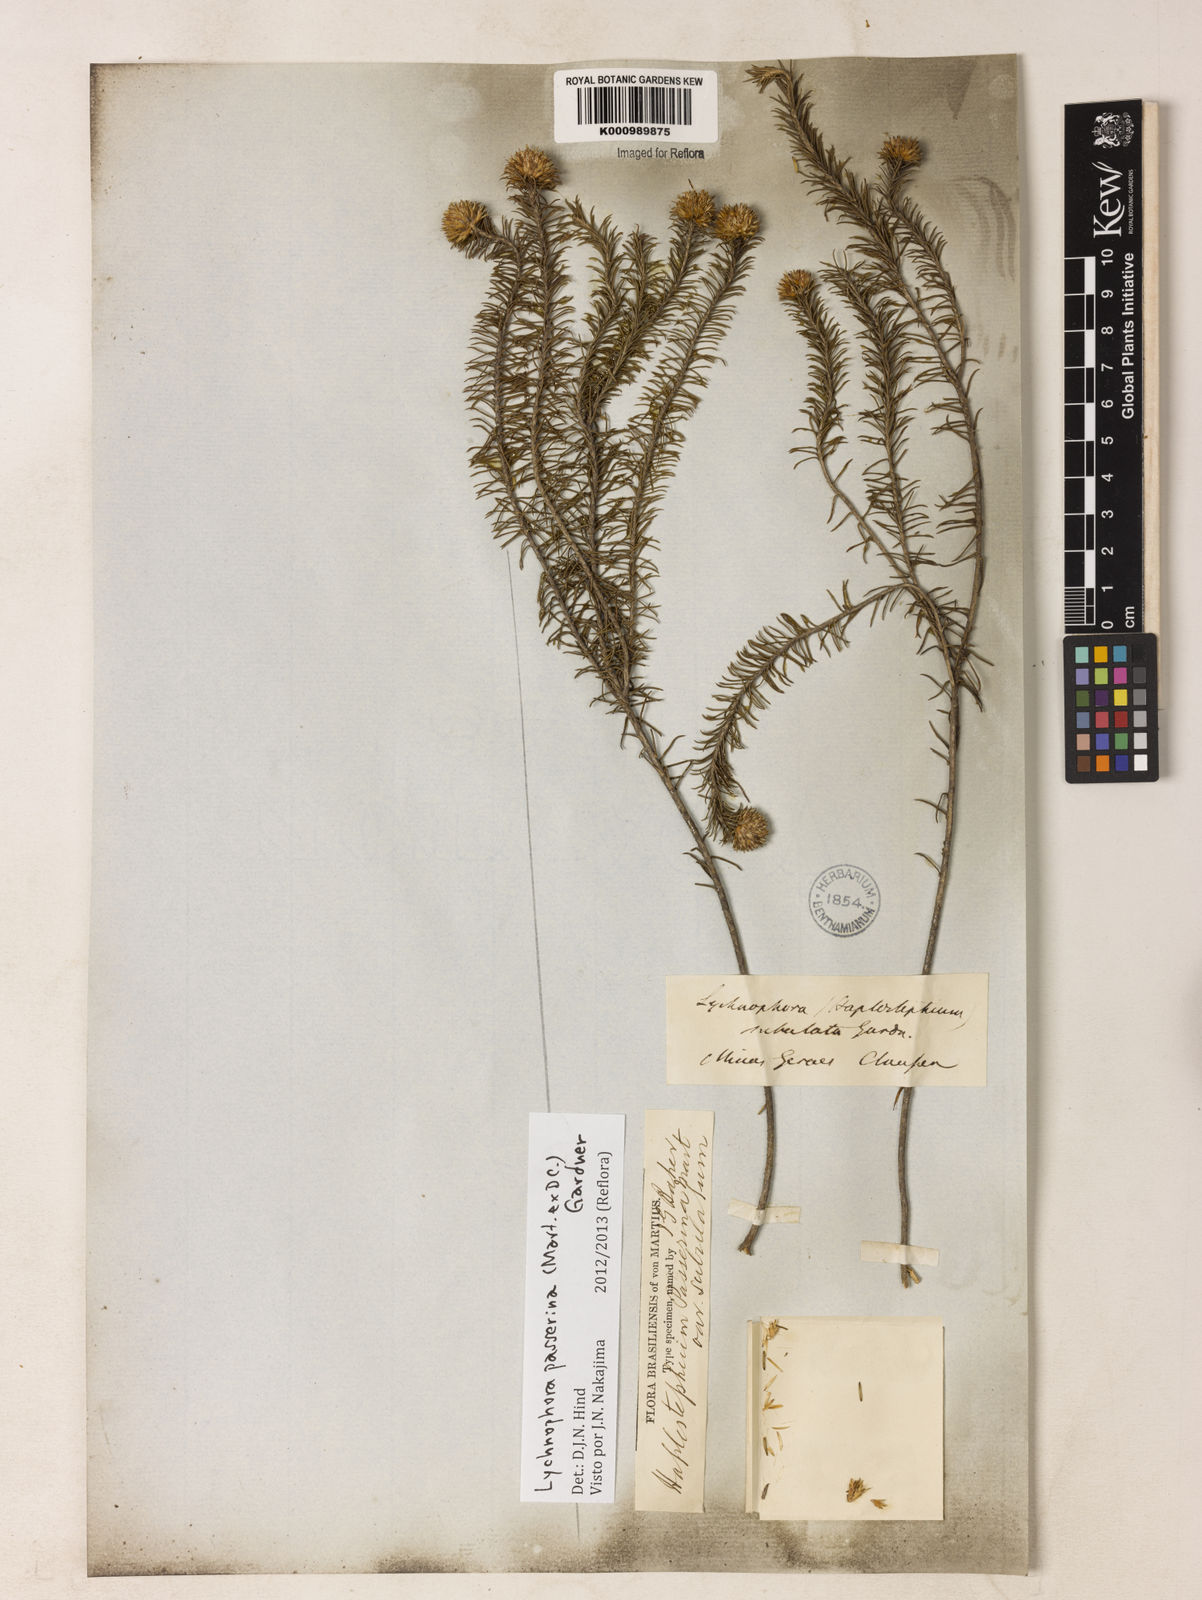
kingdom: Plantae
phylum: Tracheophyta
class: Magnoliopsida
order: Asterales
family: Asteraceae
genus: Lychnophora
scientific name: Lychnophora passerina
